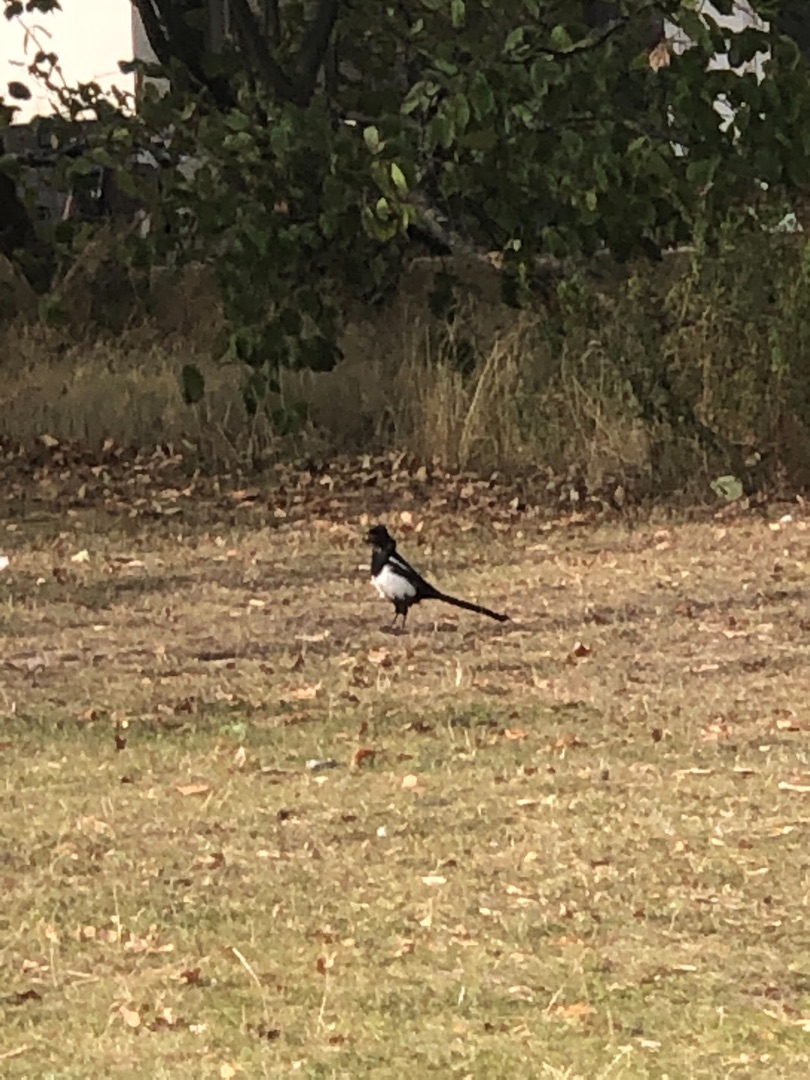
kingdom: Animalia
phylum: Chordata
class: Aves
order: Passeriformes
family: Corvidae
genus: Pica
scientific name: Pica pica
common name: Husskade
